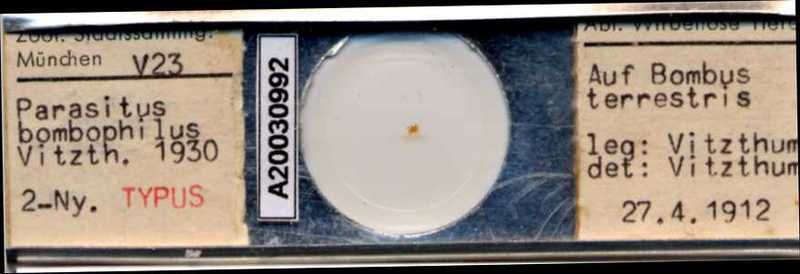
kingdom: Animalia
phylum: Arthropoda
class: Arachnida
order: Mesostigmata
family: Parasitidae
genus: Parasitus
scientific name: Parasitus bombophilus
